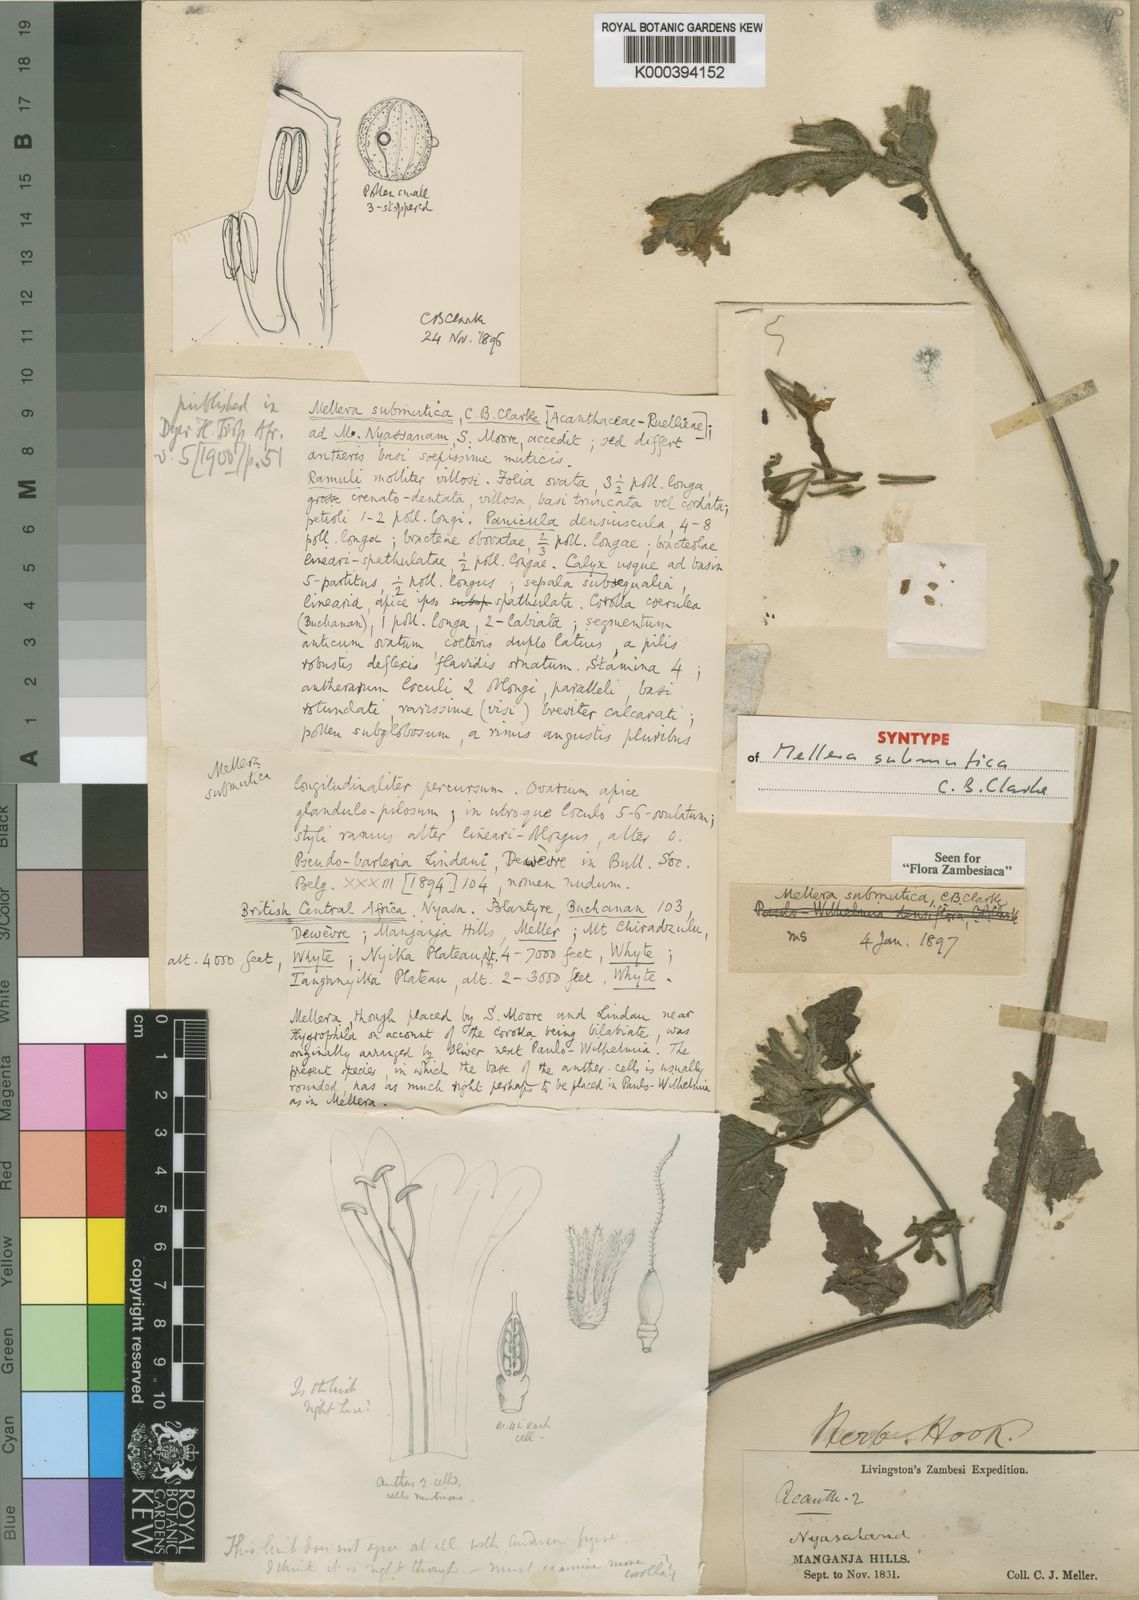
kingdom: Plantae
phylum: Tracheophyta
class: Magnoliopsida
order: Lamiales
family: Acanthaceae
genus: Mellera
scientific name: Mellera submutica
